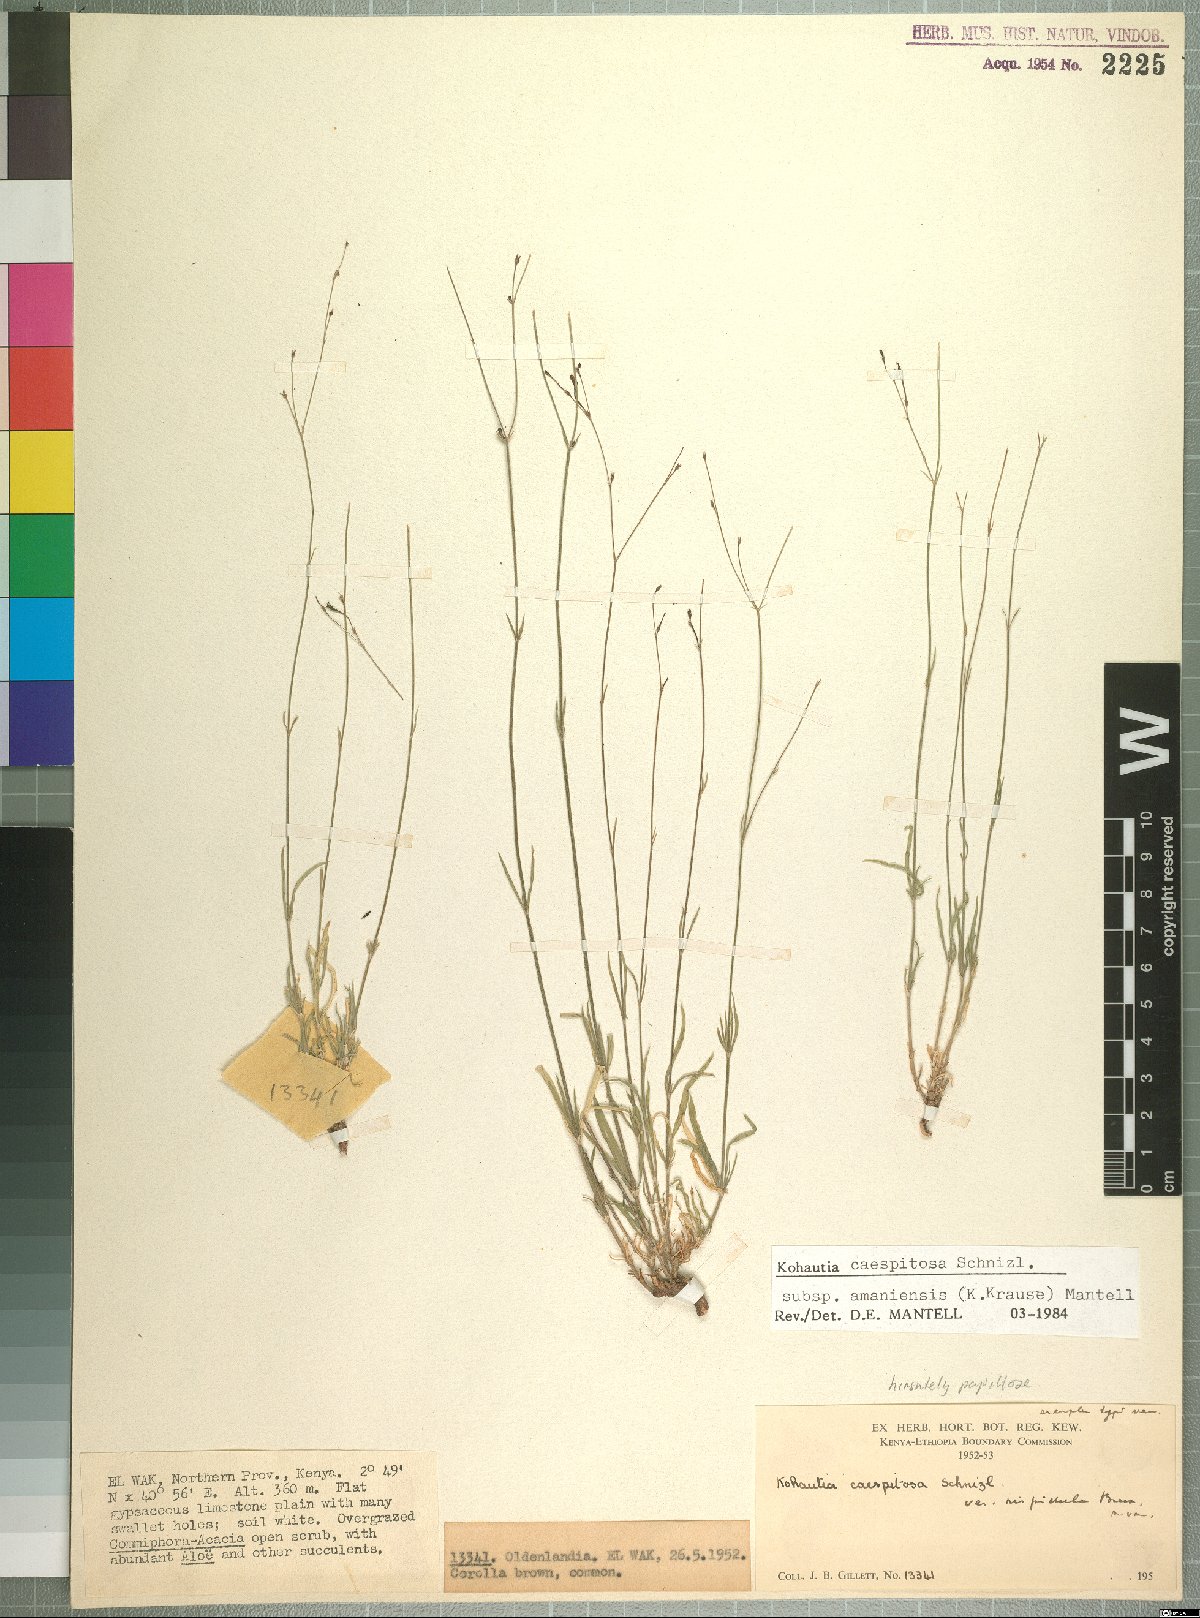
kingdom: Plantae
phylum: Tracheophyta
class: Magnoliopsida
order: Gentianales
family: Rubiaceae
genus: Kohautia
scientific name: Kohautia caespitosa
